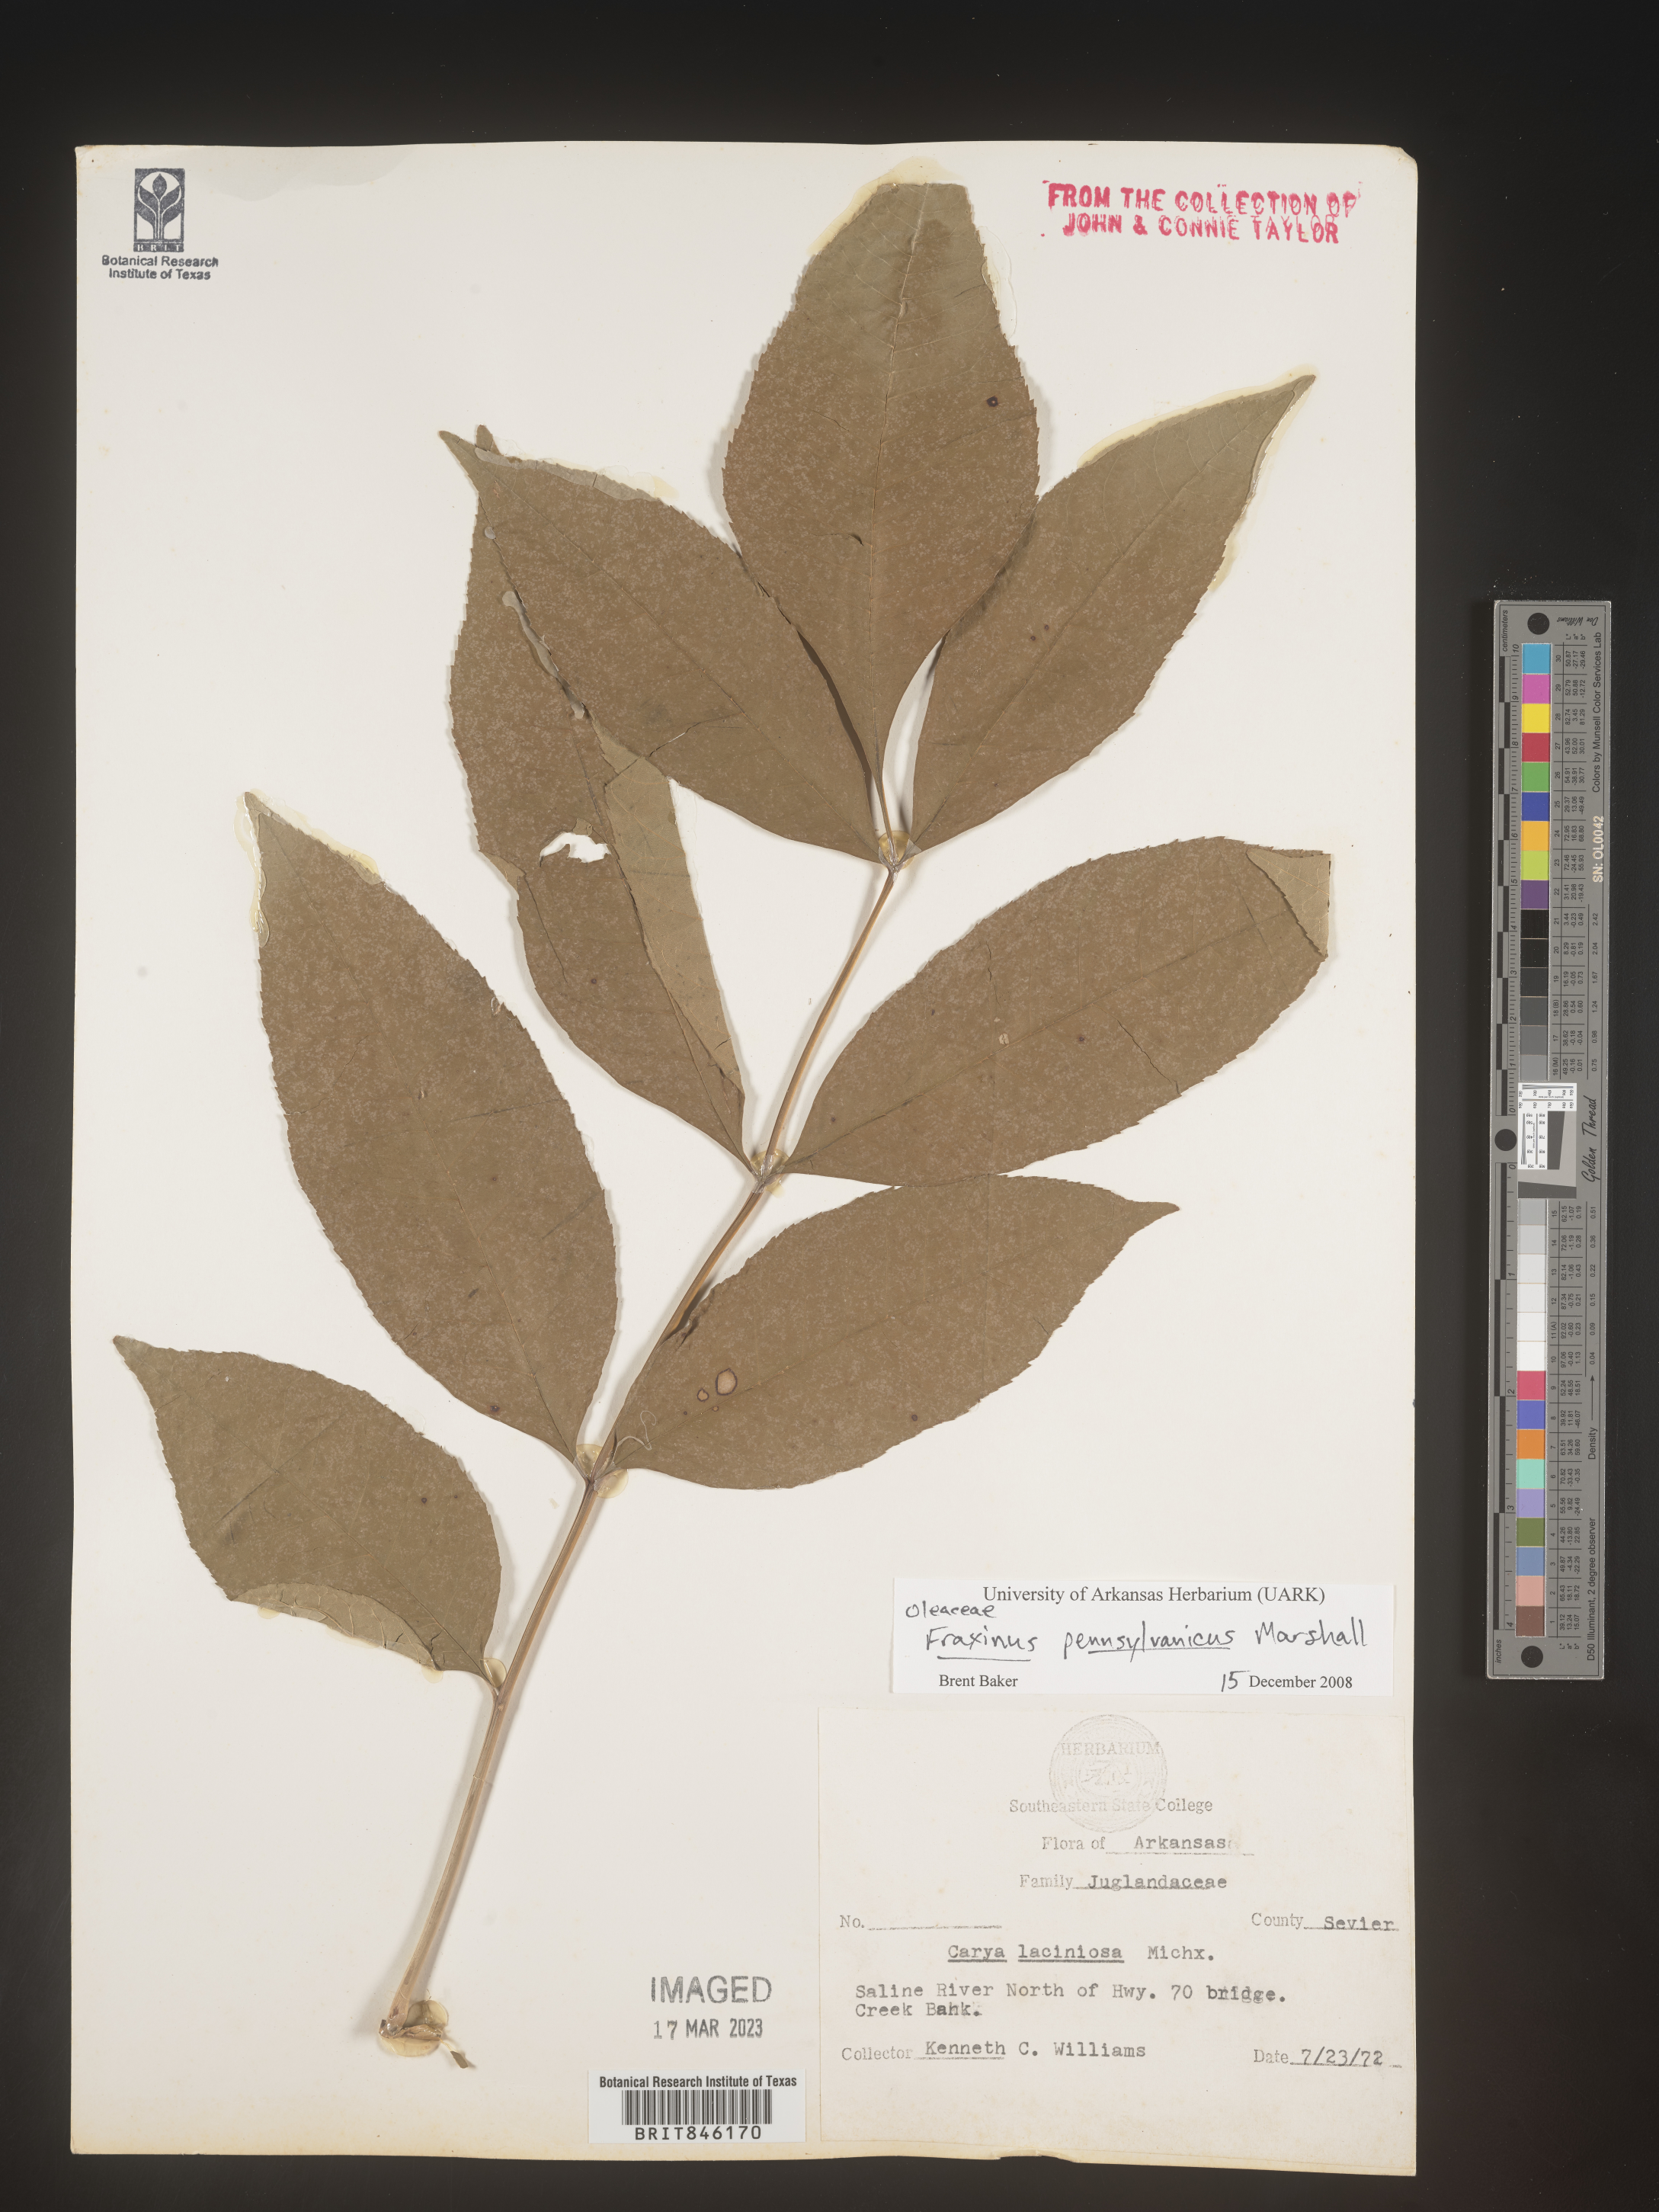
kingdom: Plantae
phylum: Tracheophyta
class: Magnoliopsida
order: Lamiales
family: Oleaceae
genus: Fraxinus
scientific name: Fraxinus pennsylvanica
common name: Green ash
